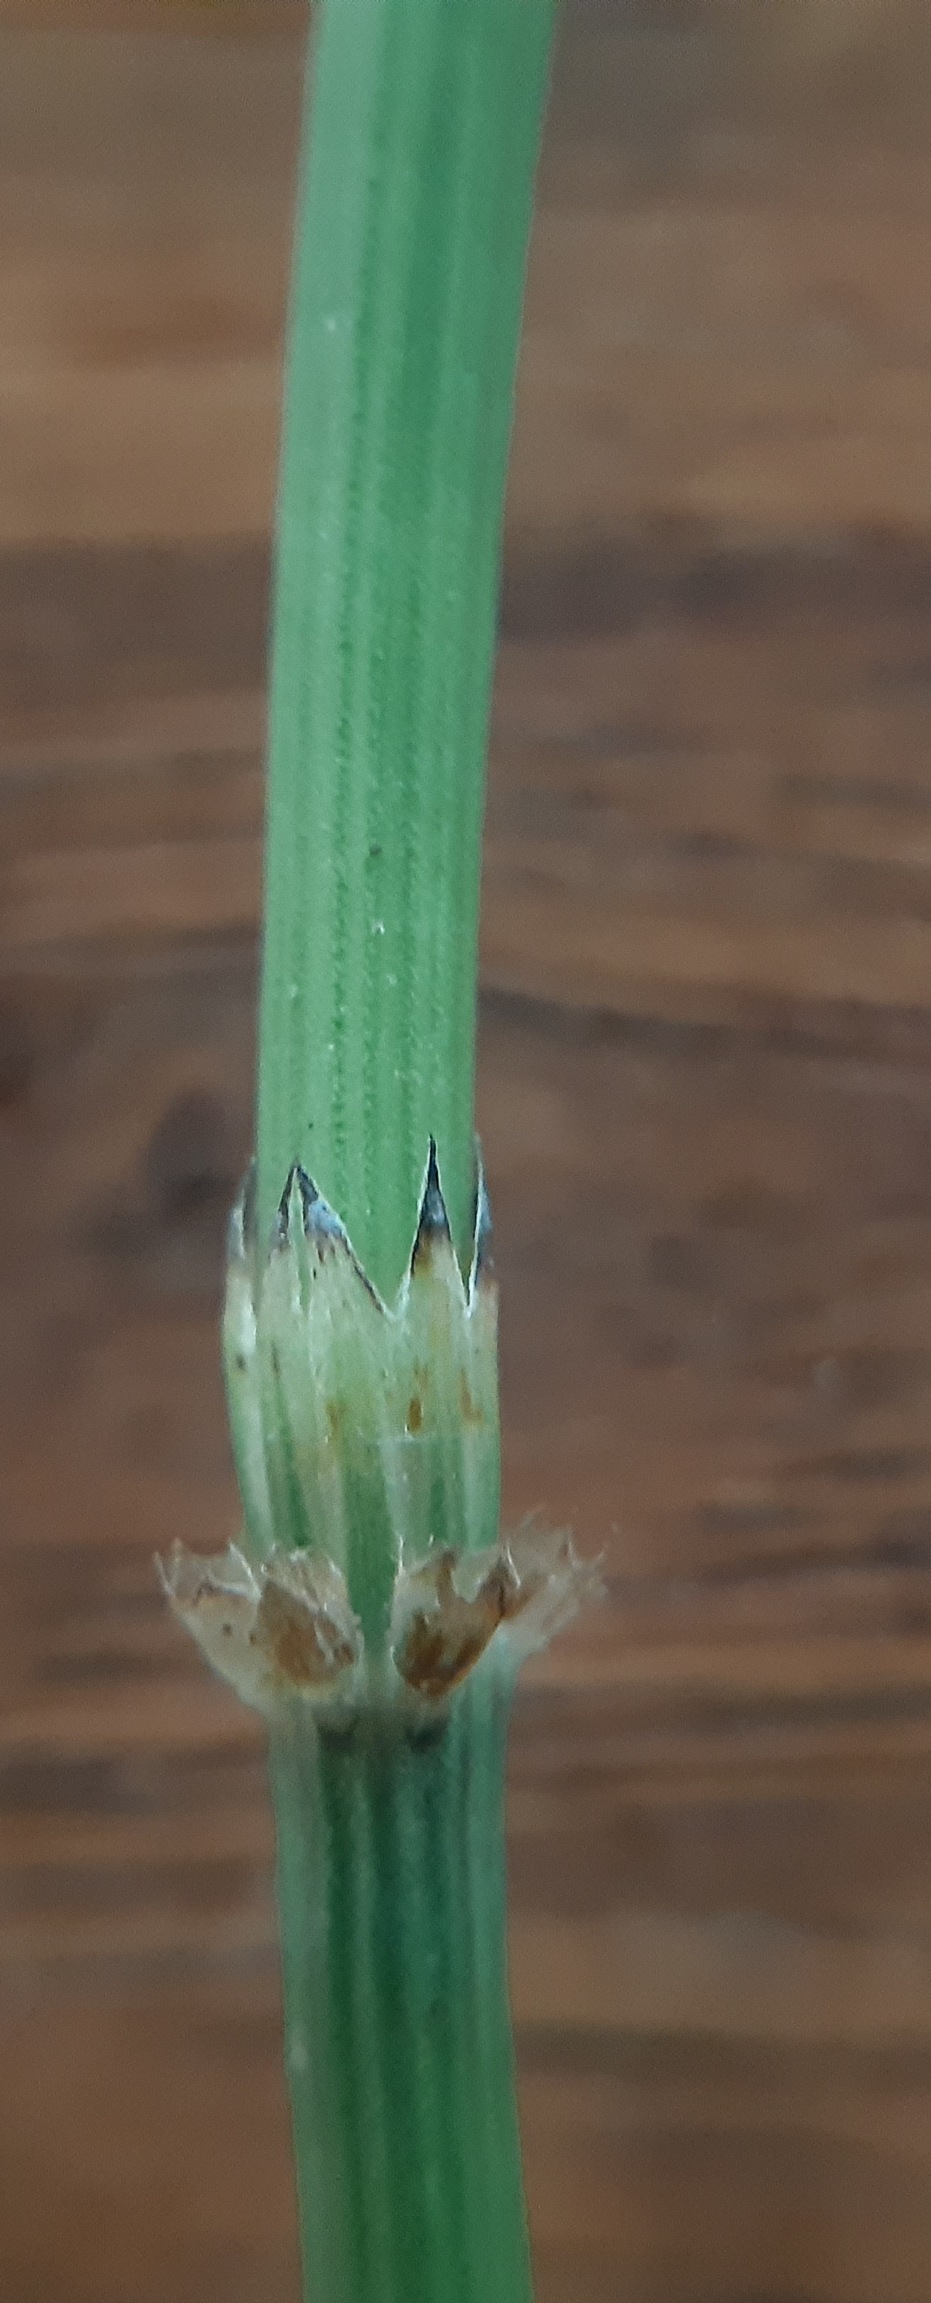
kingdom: Plantae
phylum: Tracheophyta
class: Polypodiopsida
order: Equisetales
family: Equisetaceae
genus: Equisetum
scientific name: Equisetum arvense
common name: Ager-padderok
